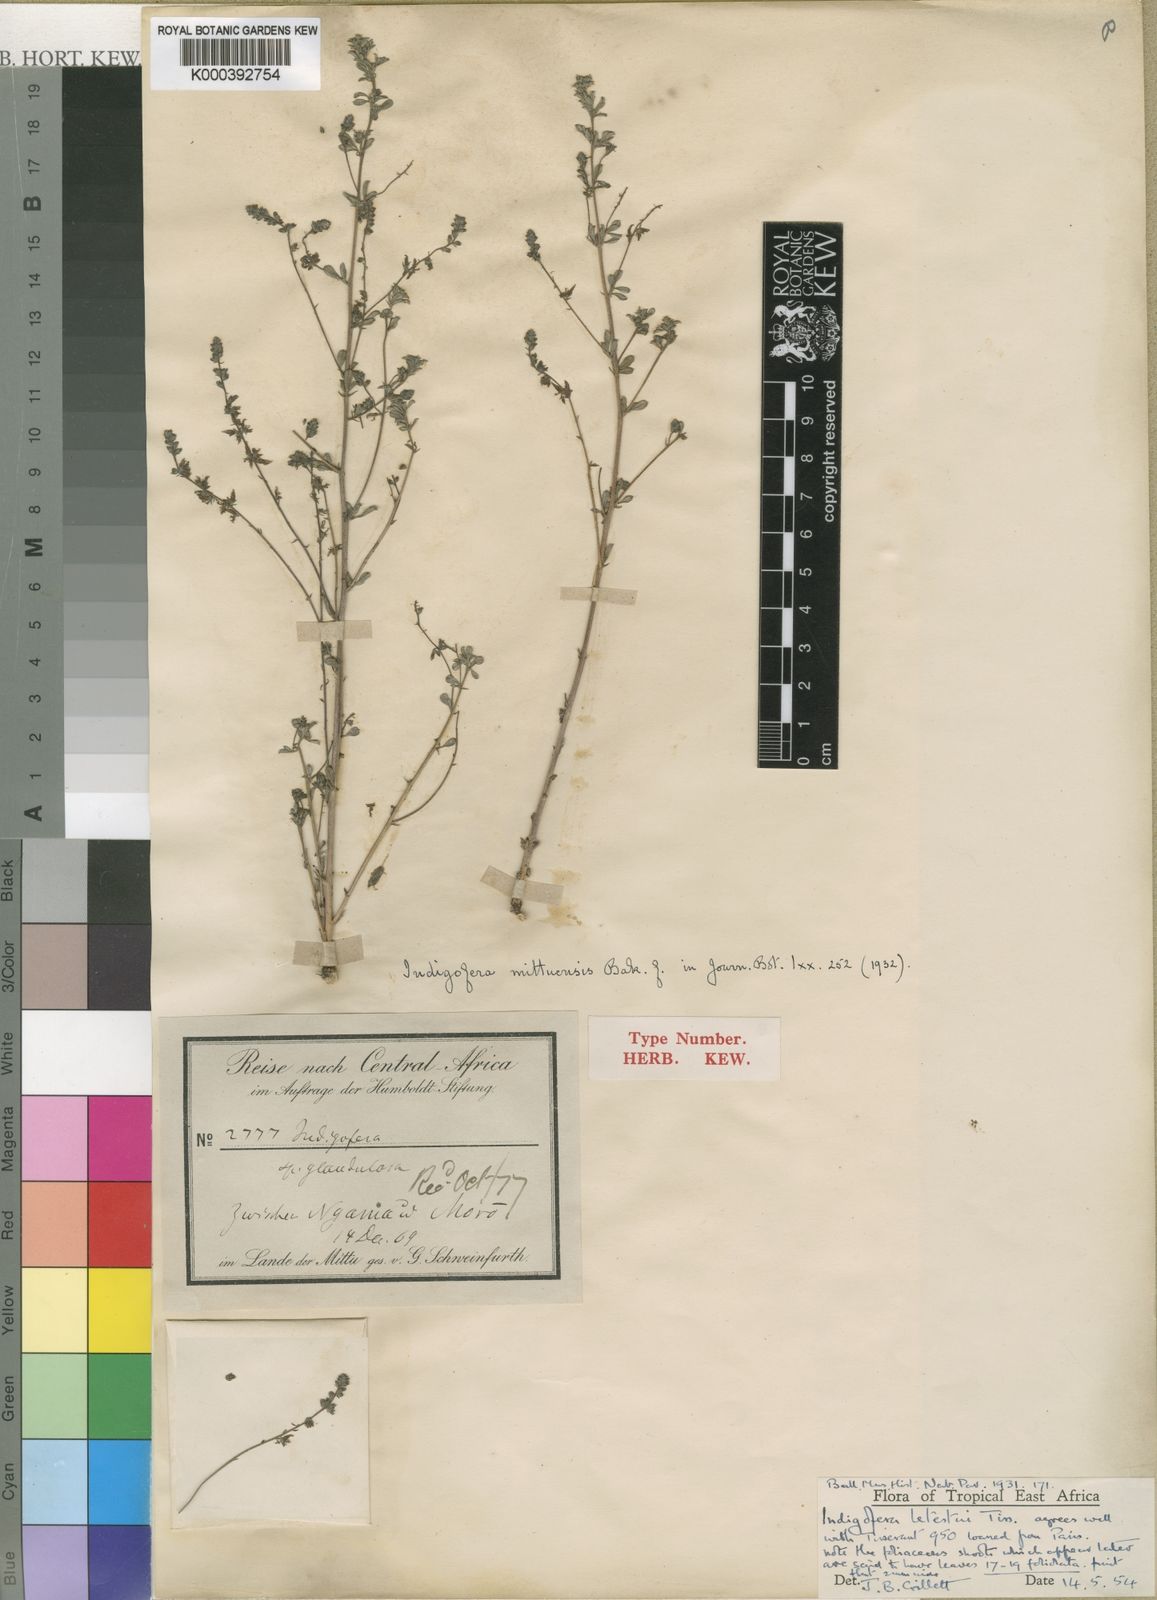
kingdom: Plantae
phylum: Tracheophyta
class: Magnoliopsida
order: Fabales
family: Fabaceae
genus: Indigofera
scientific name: Indigofera letestui
